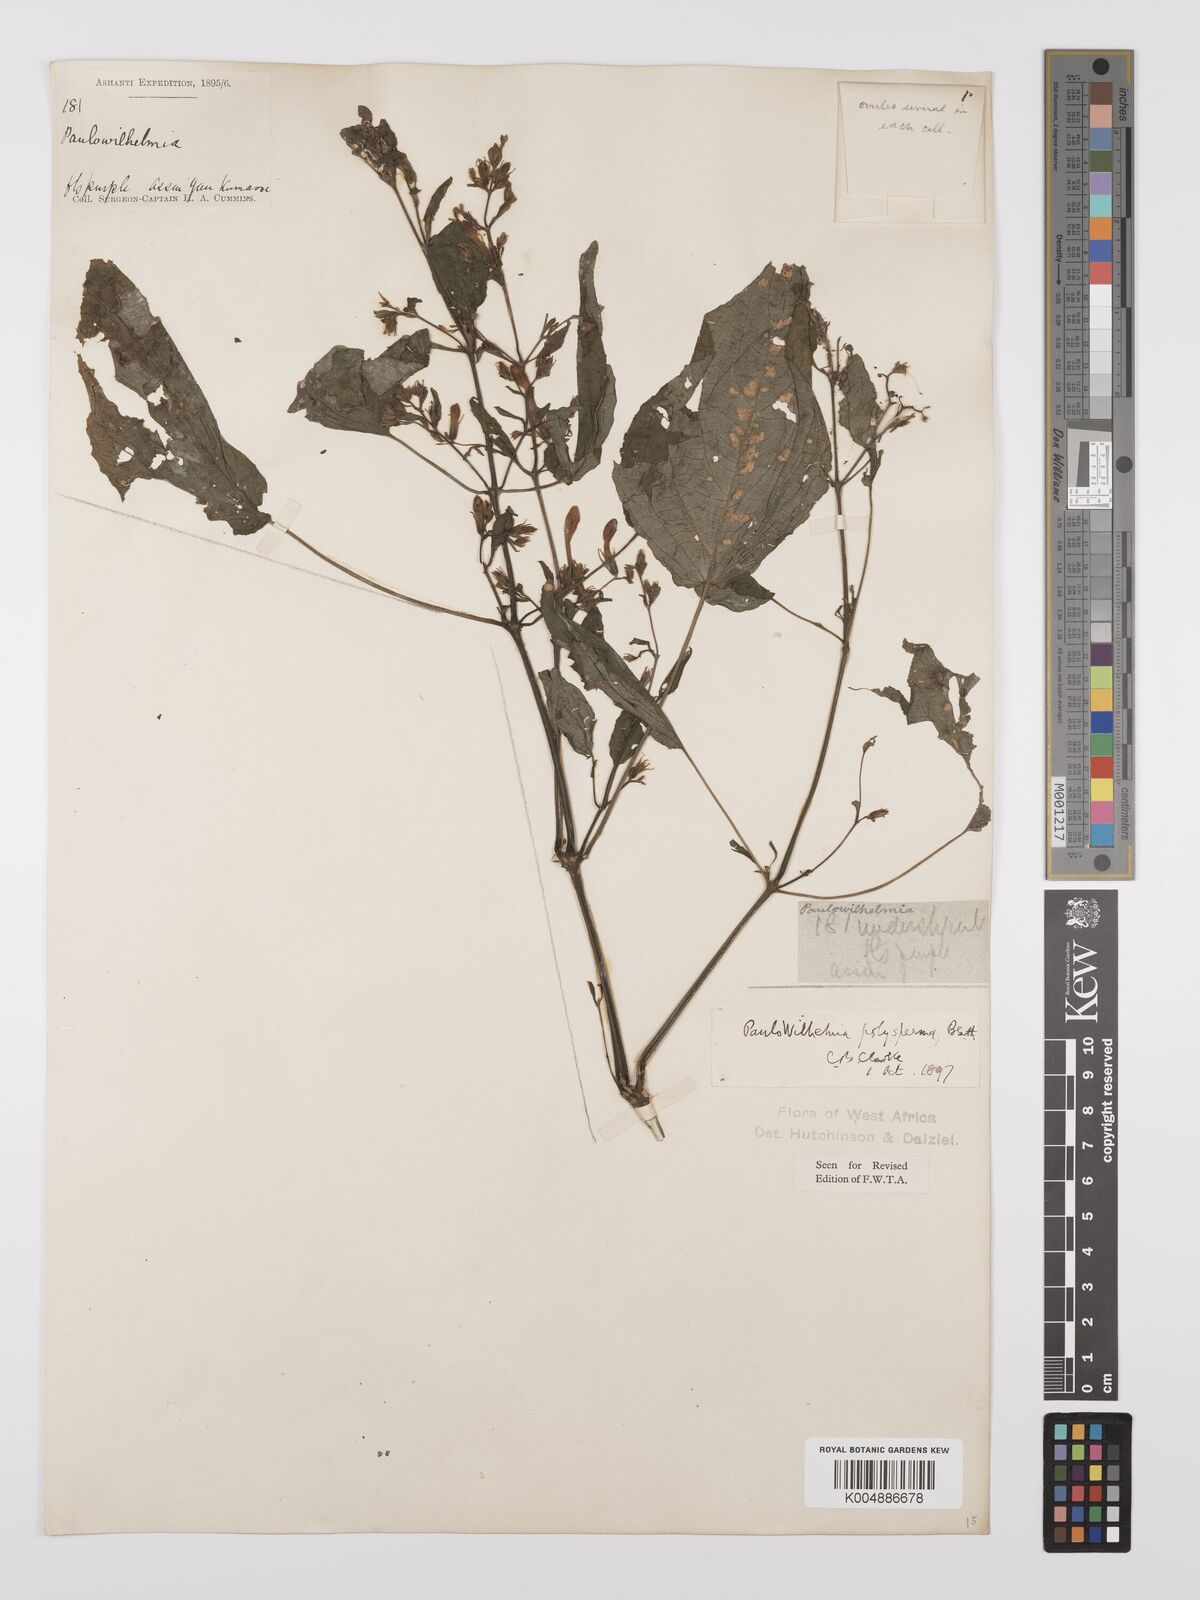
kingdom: Plantae
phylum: Tracheophyta
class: Magnoliopsida
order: Lamiales
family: Acanthaceae
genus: Eremomastax
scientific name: Eremomastax speciosa
